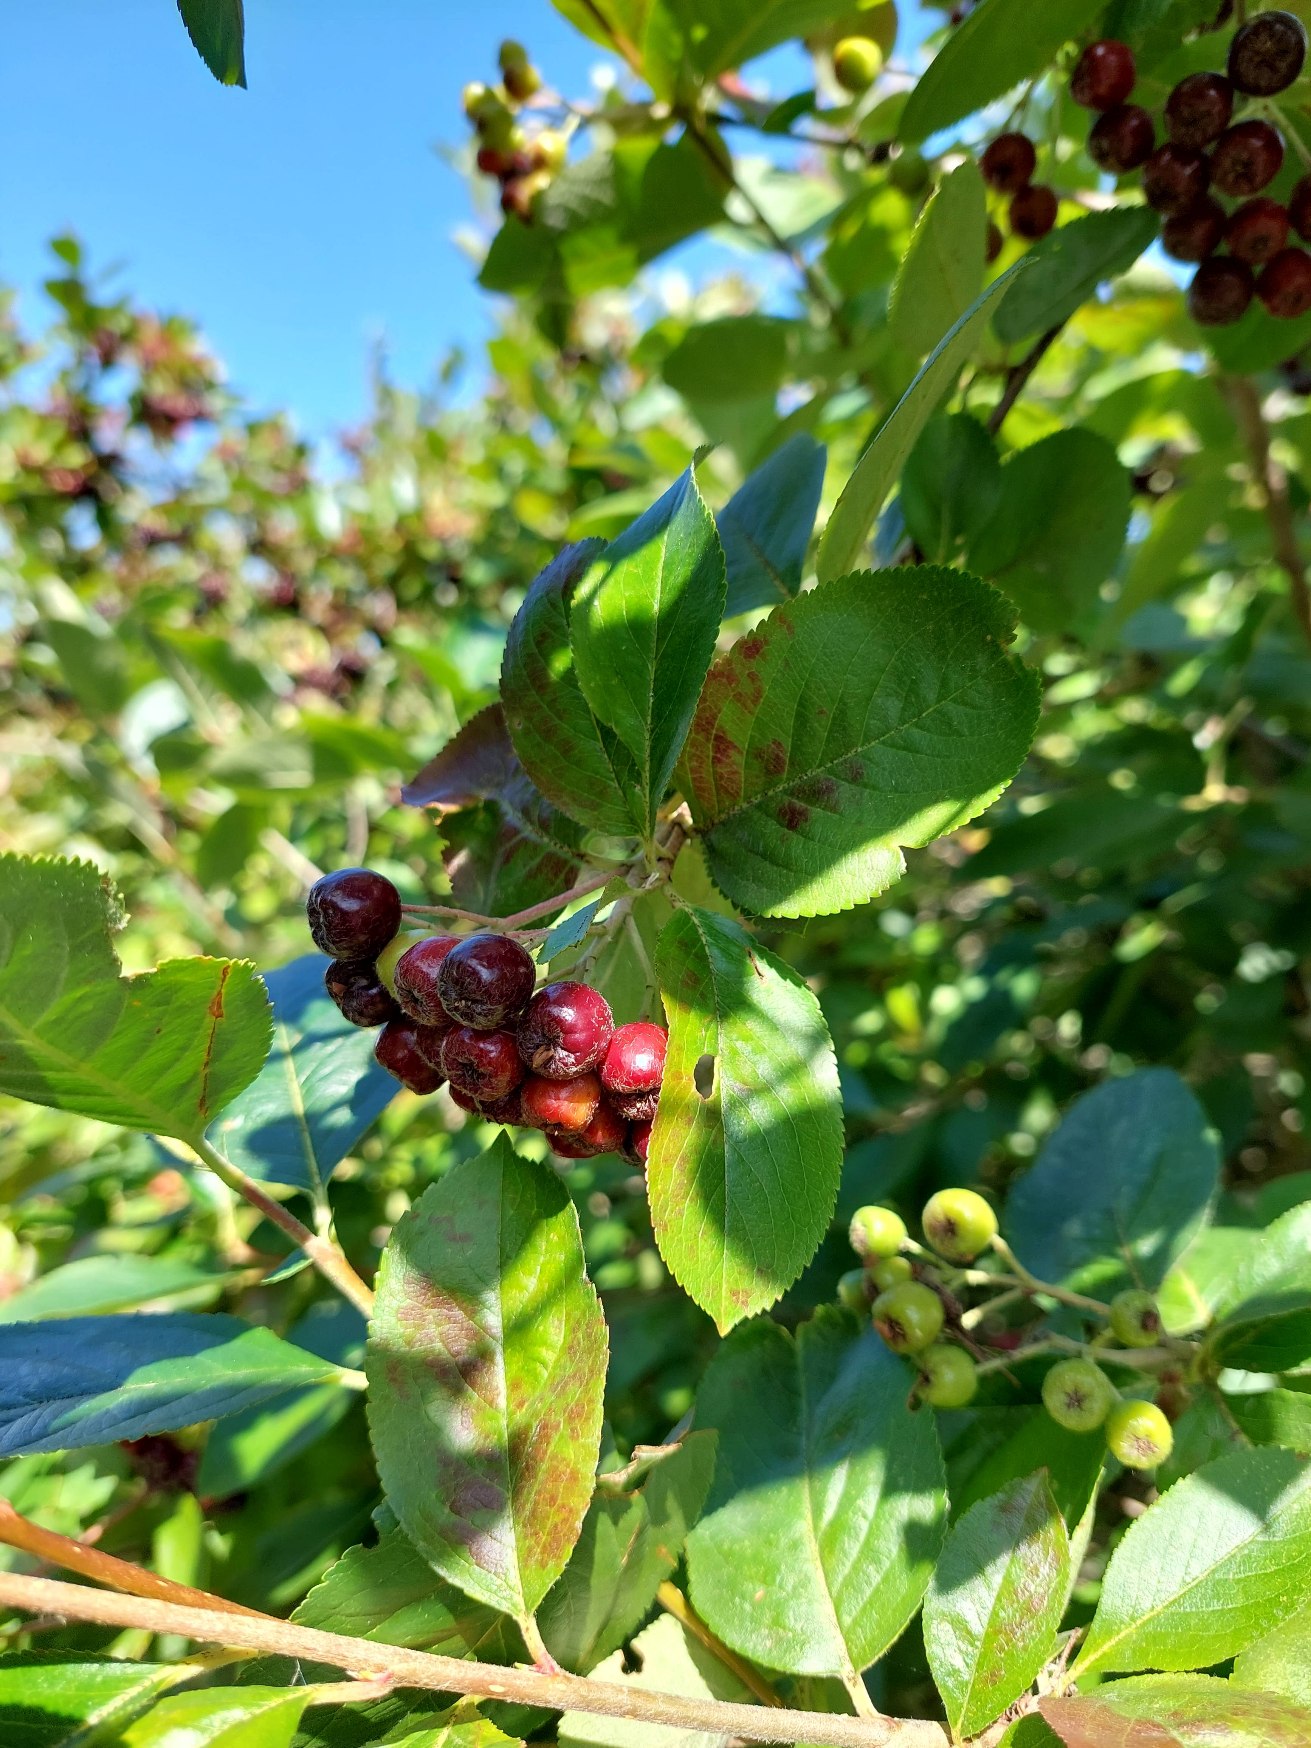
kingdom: Plantae
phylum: Tracheophyta
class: Magnoliopsida
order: Rosales
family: Rosaceae
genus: Aronia
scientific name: Aronia prunifolia
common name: Blommebladet surbær
